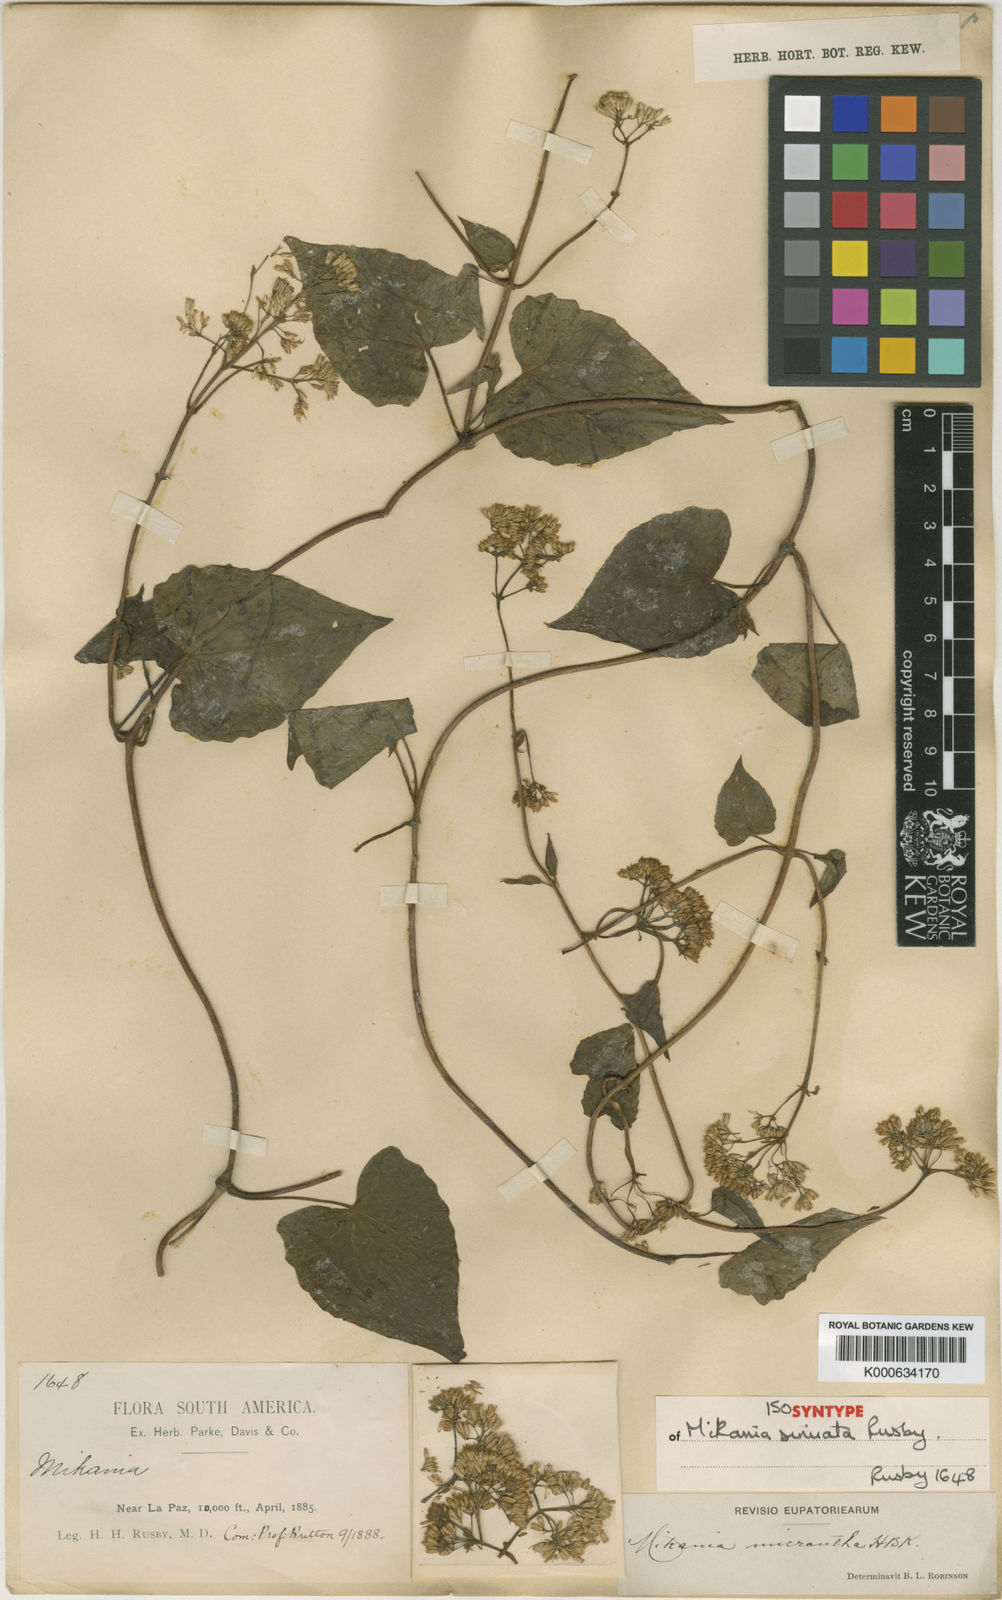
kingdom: Plantae
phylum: Tracheophyta
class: Magnoliopsida
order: Asterales
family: Asteraceae
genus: Mikania
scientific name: Mikania micrantha
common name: Mile-a-minute
